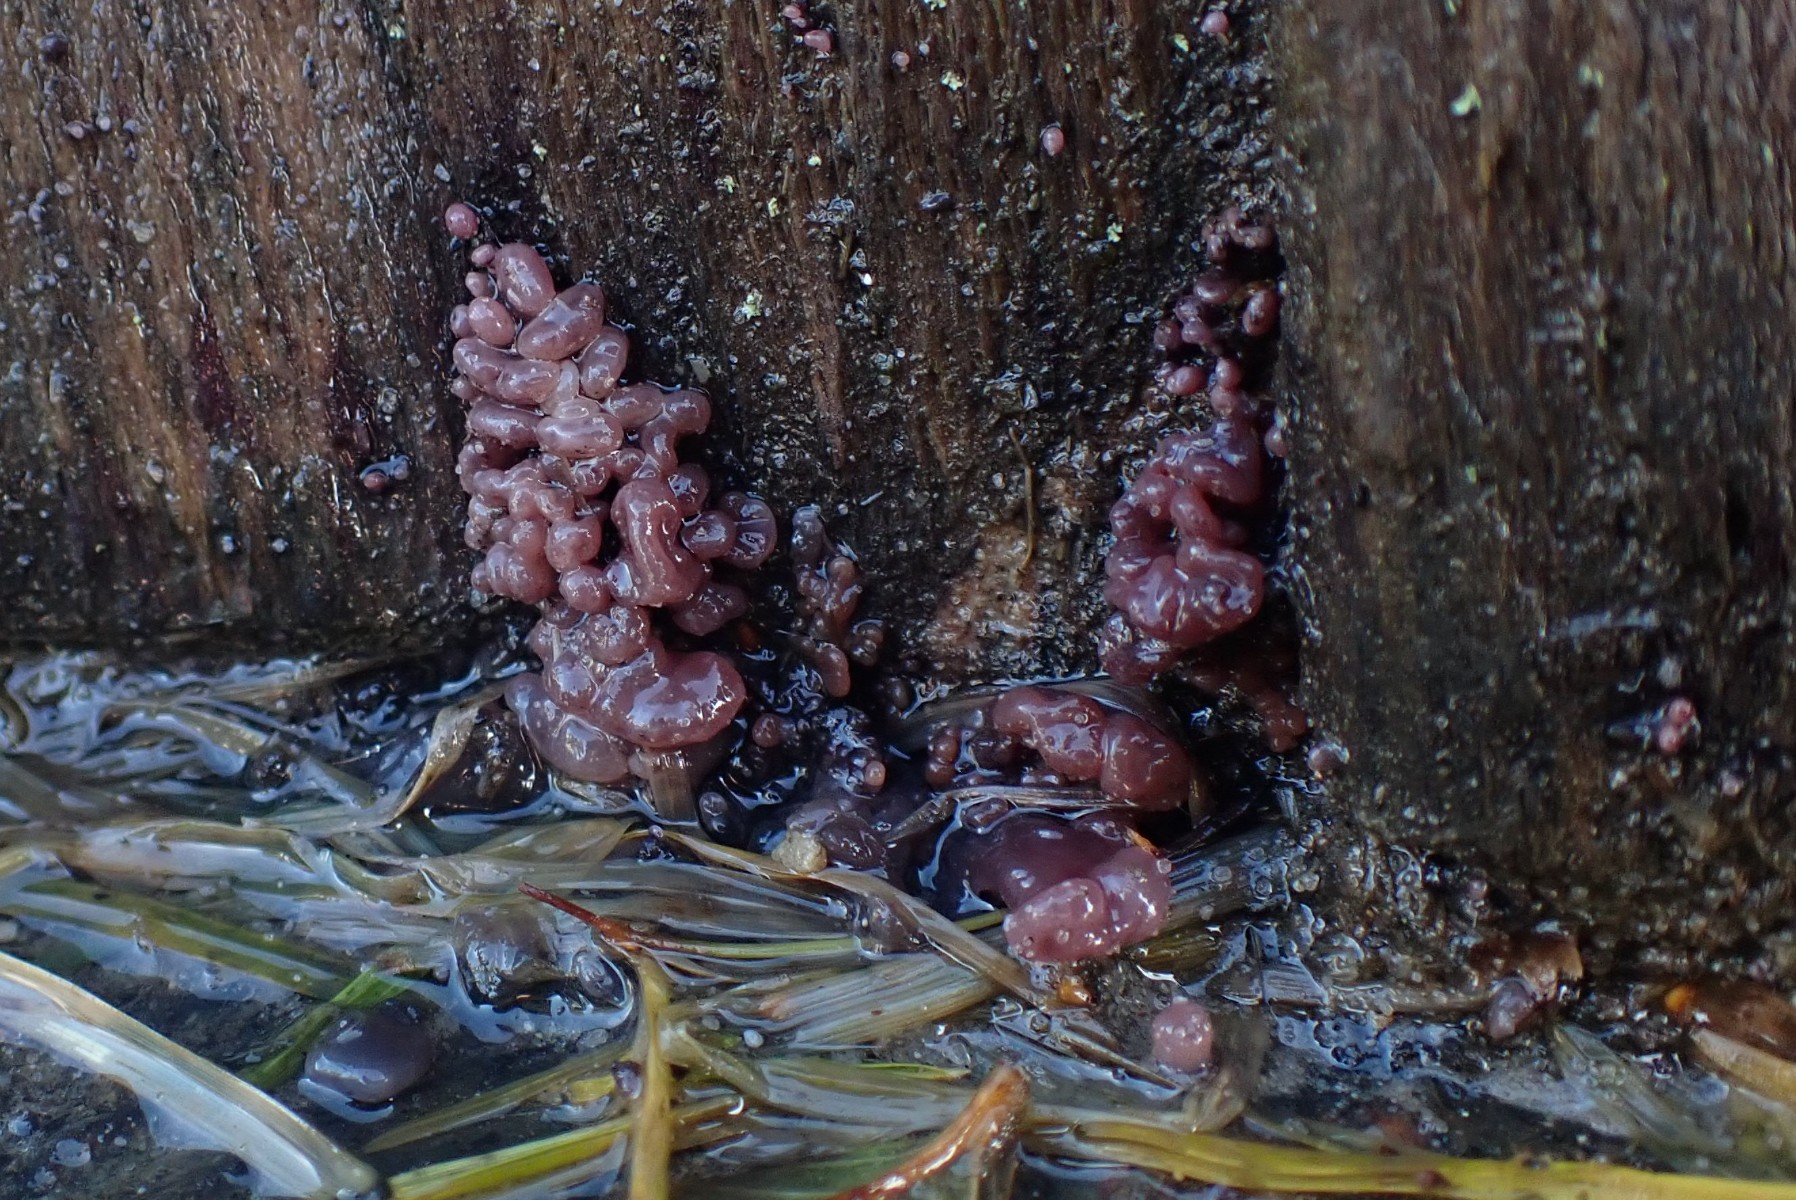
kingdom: Fungi
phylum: Ascomycota
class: Leotiomycetes
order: Helotiales
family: Gelatinodiscaceae
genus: Ascocoryne
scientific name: Ascocoryne sarcoides
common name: rødlilla sejskive
